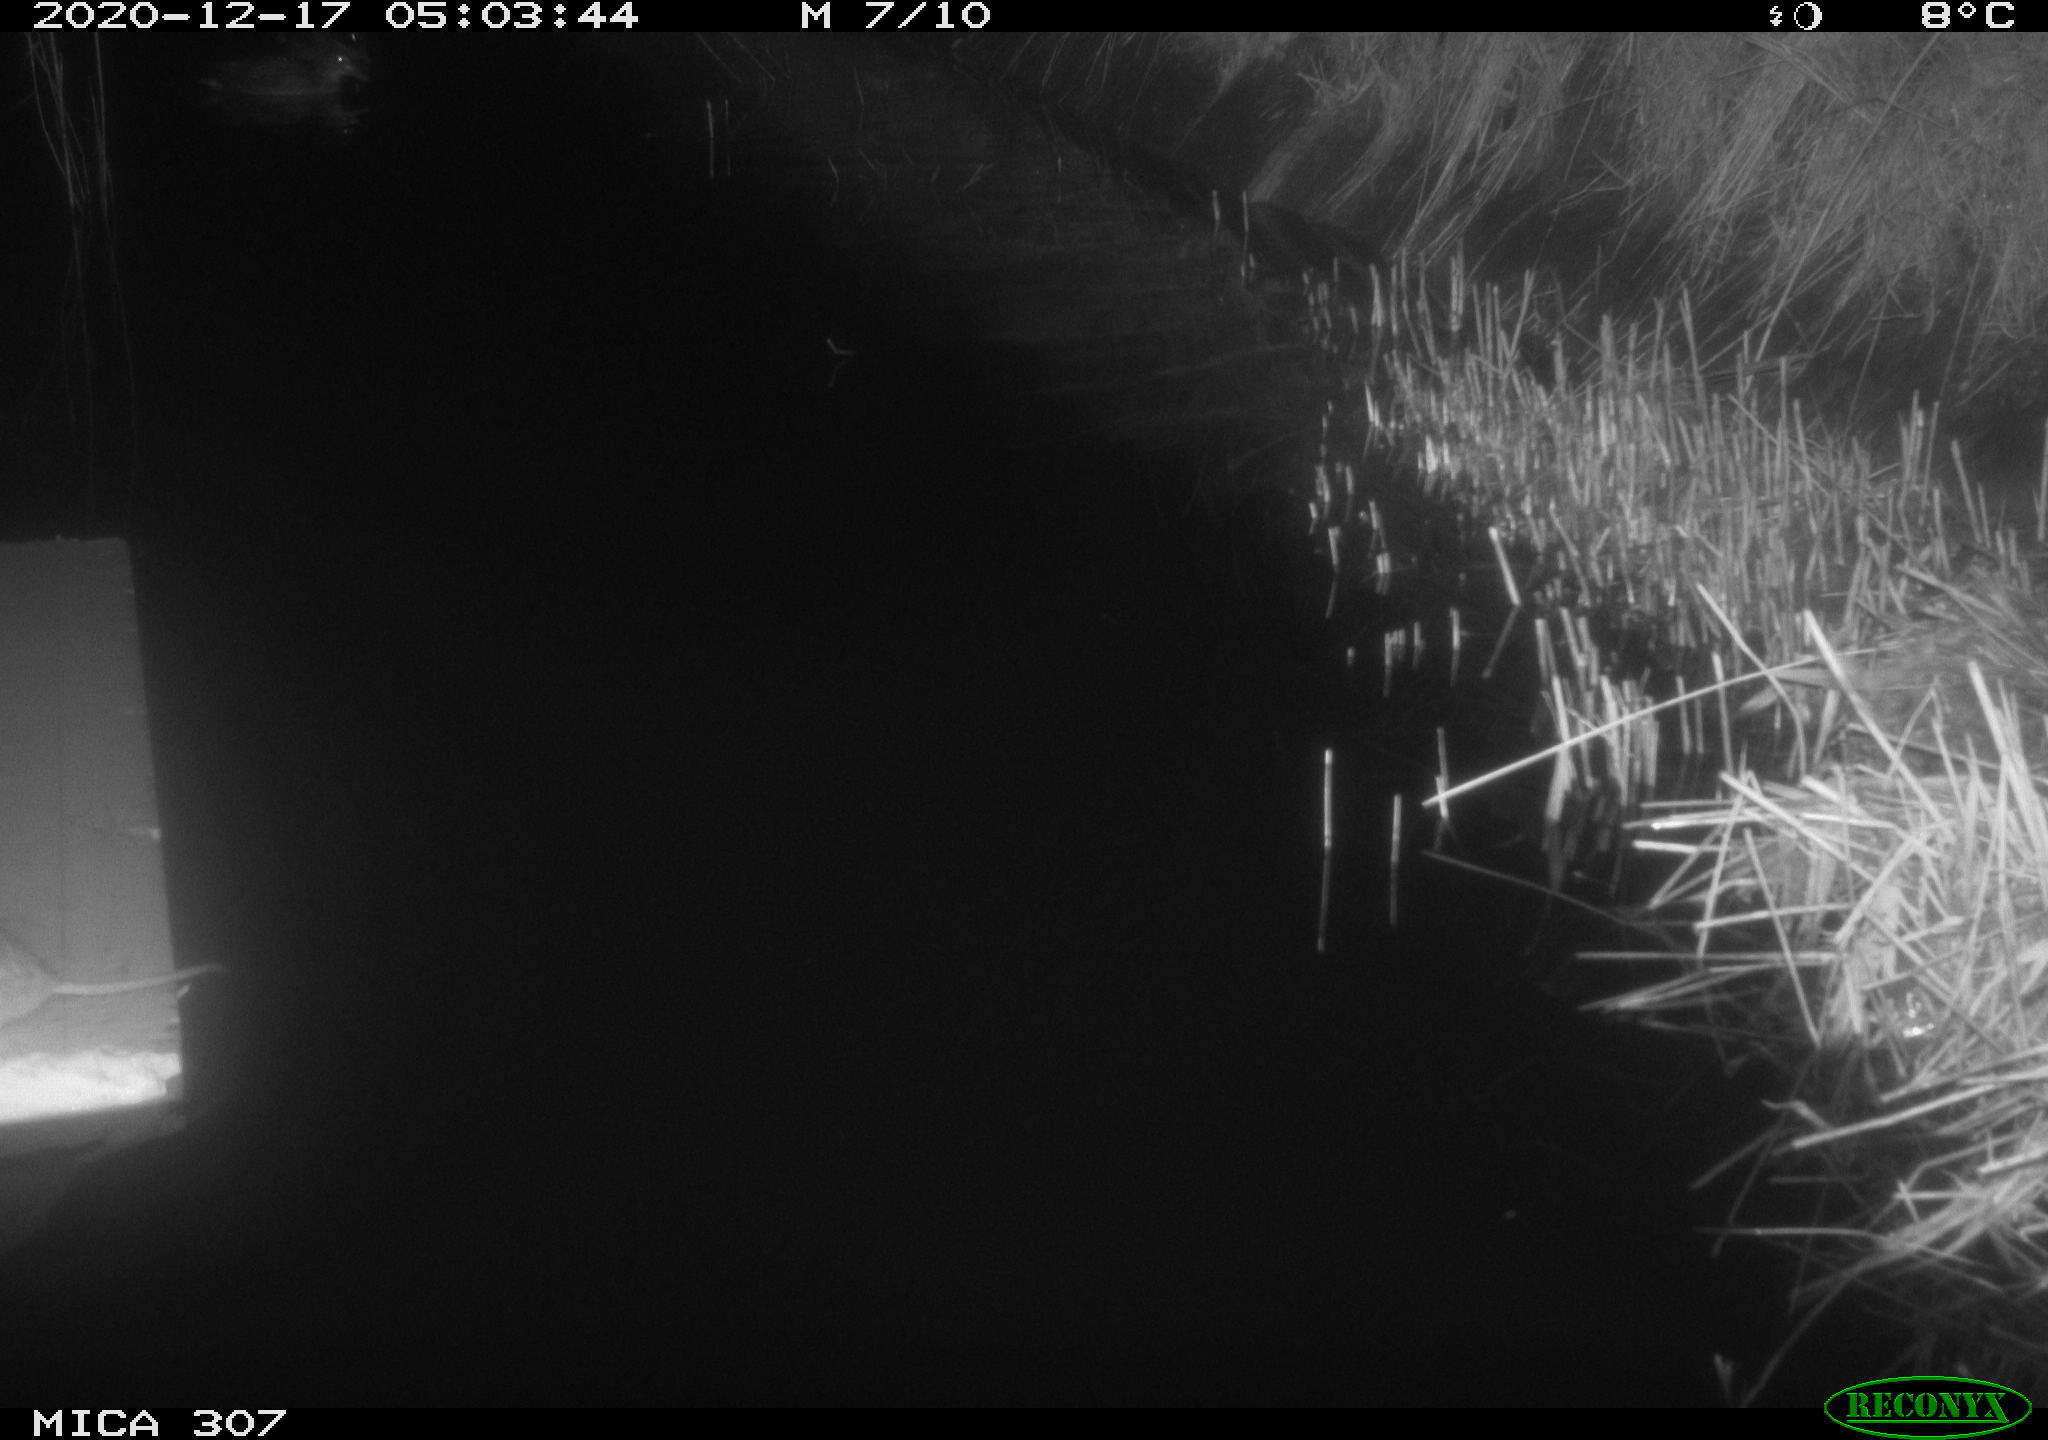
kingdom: Animalia
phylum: Chordata
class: Mammalia
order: Rodentia
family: Muridae
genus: Rattus
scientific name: Rattus norvegicus
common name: Brown rat
